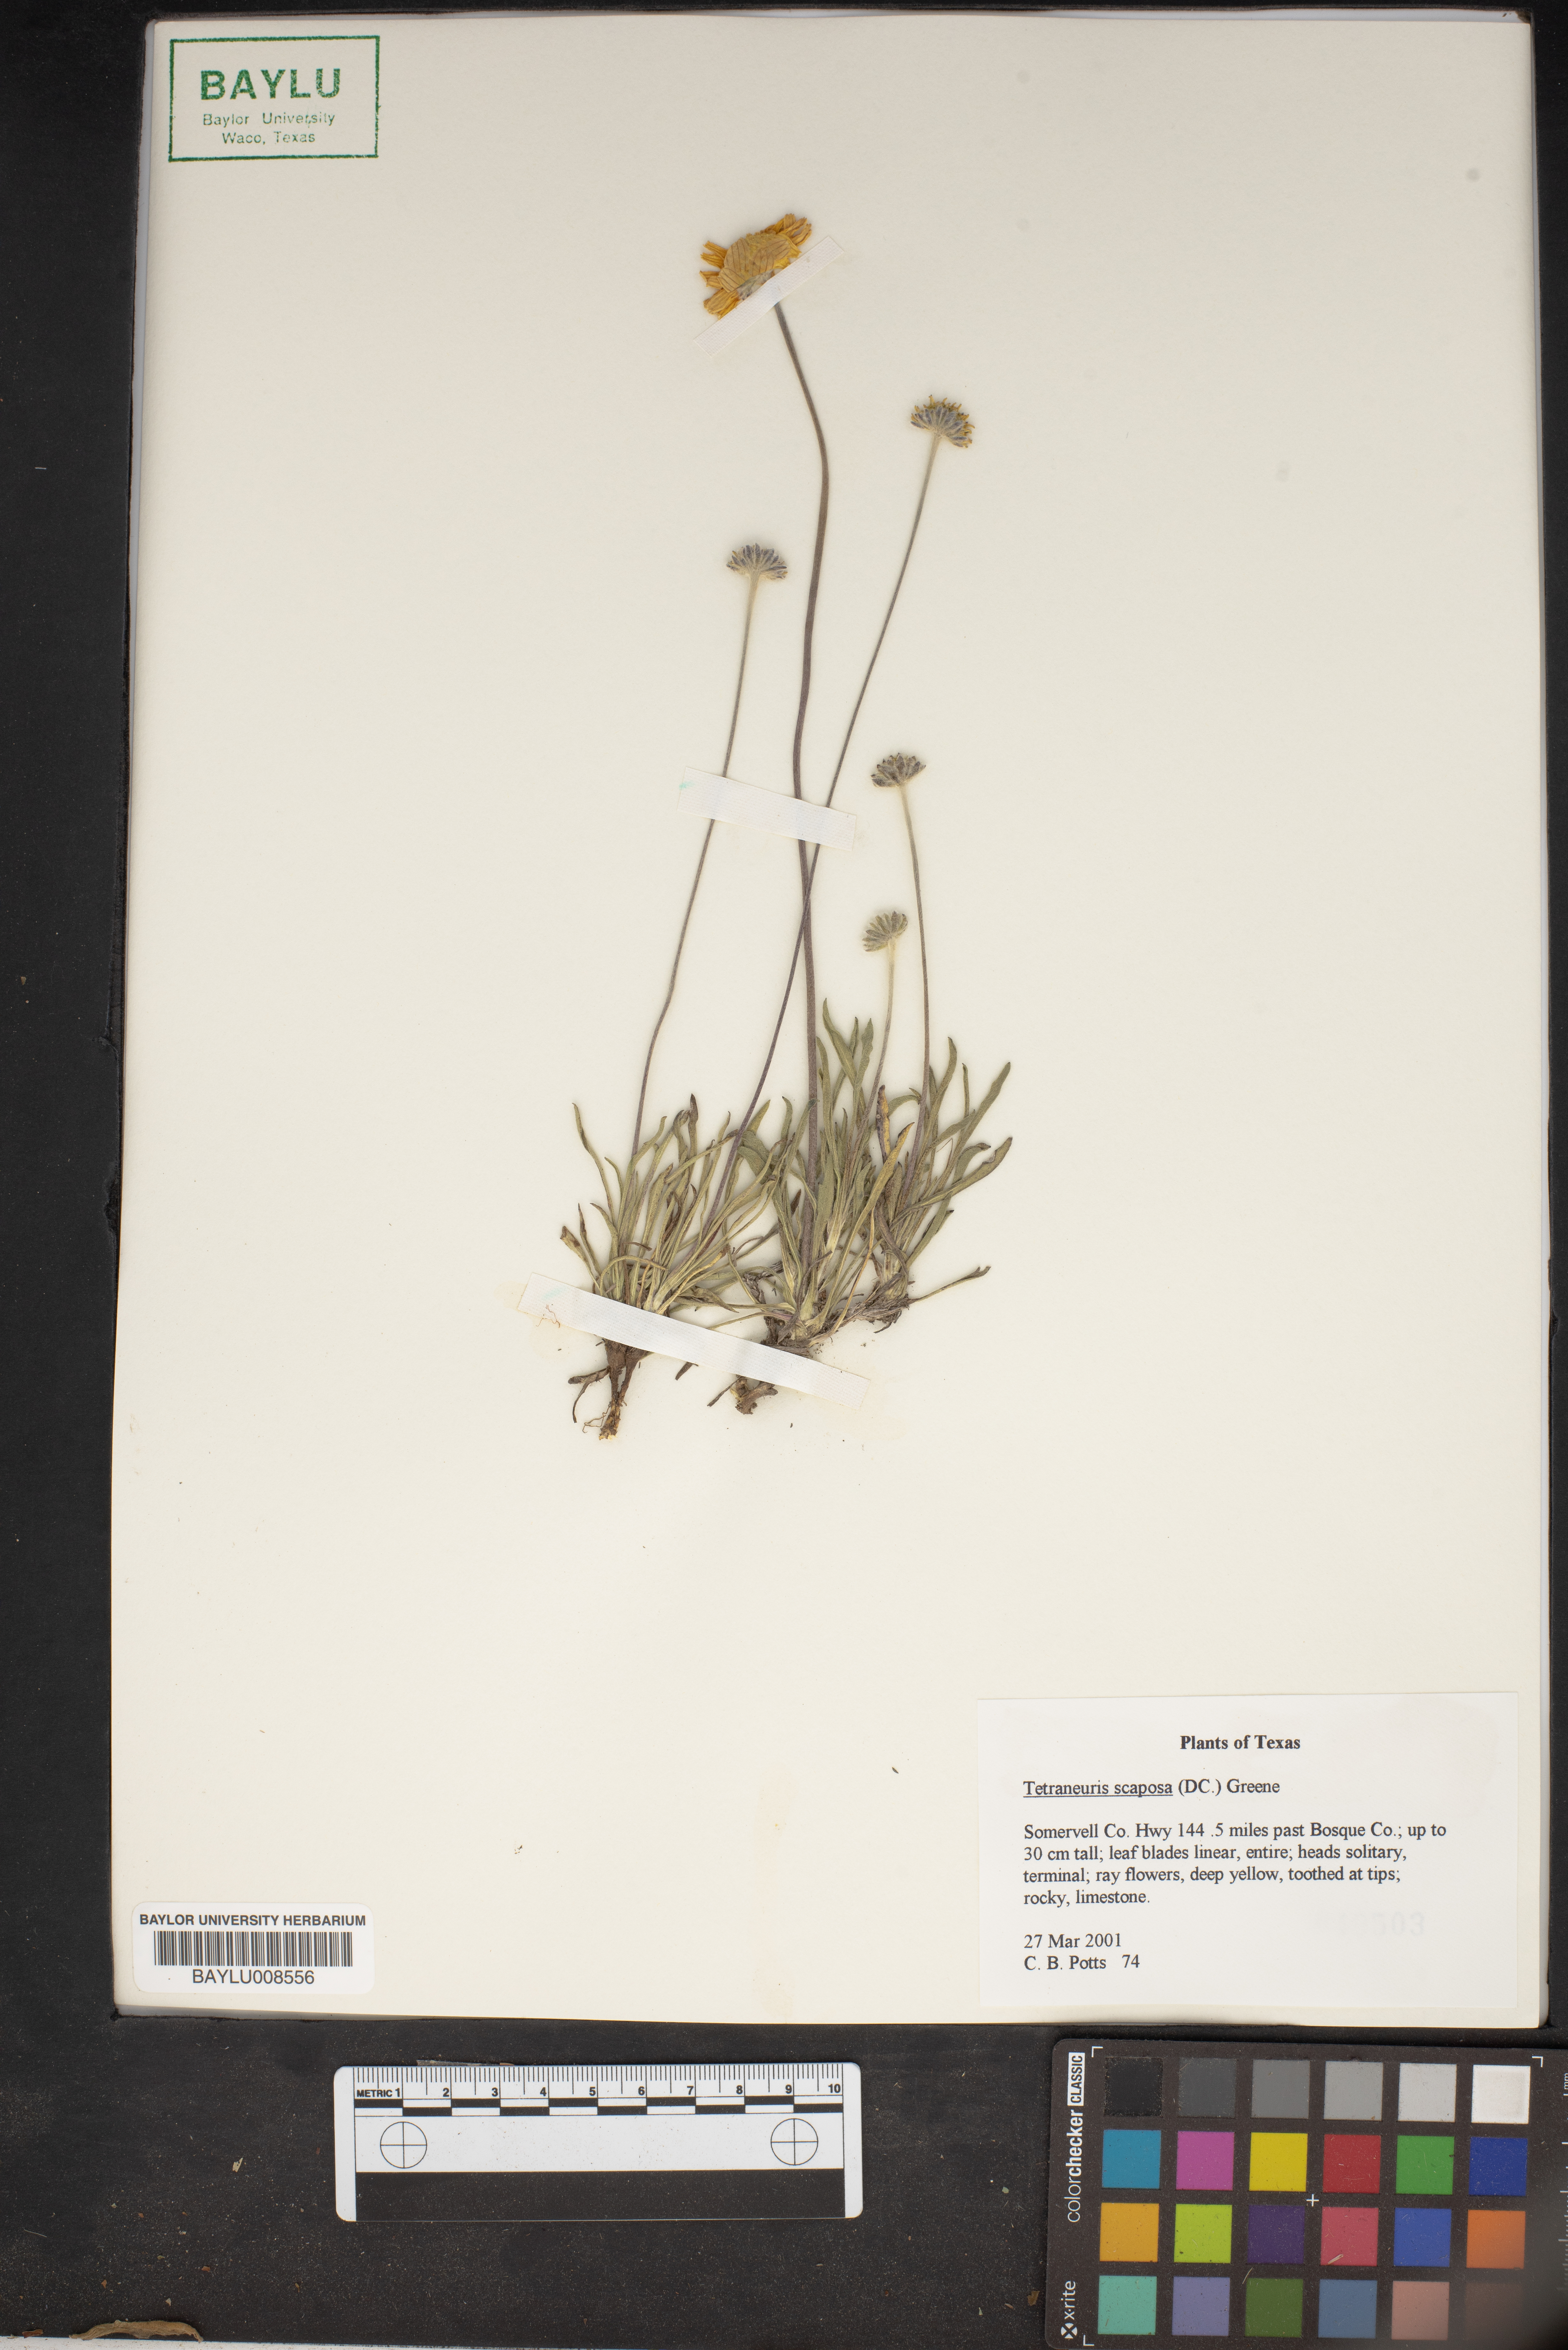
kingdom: Plantae
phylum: Tracheophyta
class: Magnoliopsida
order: Asterales
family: Asteraceae
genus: Tetraneuris
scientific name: Tetraneuris scaposa
